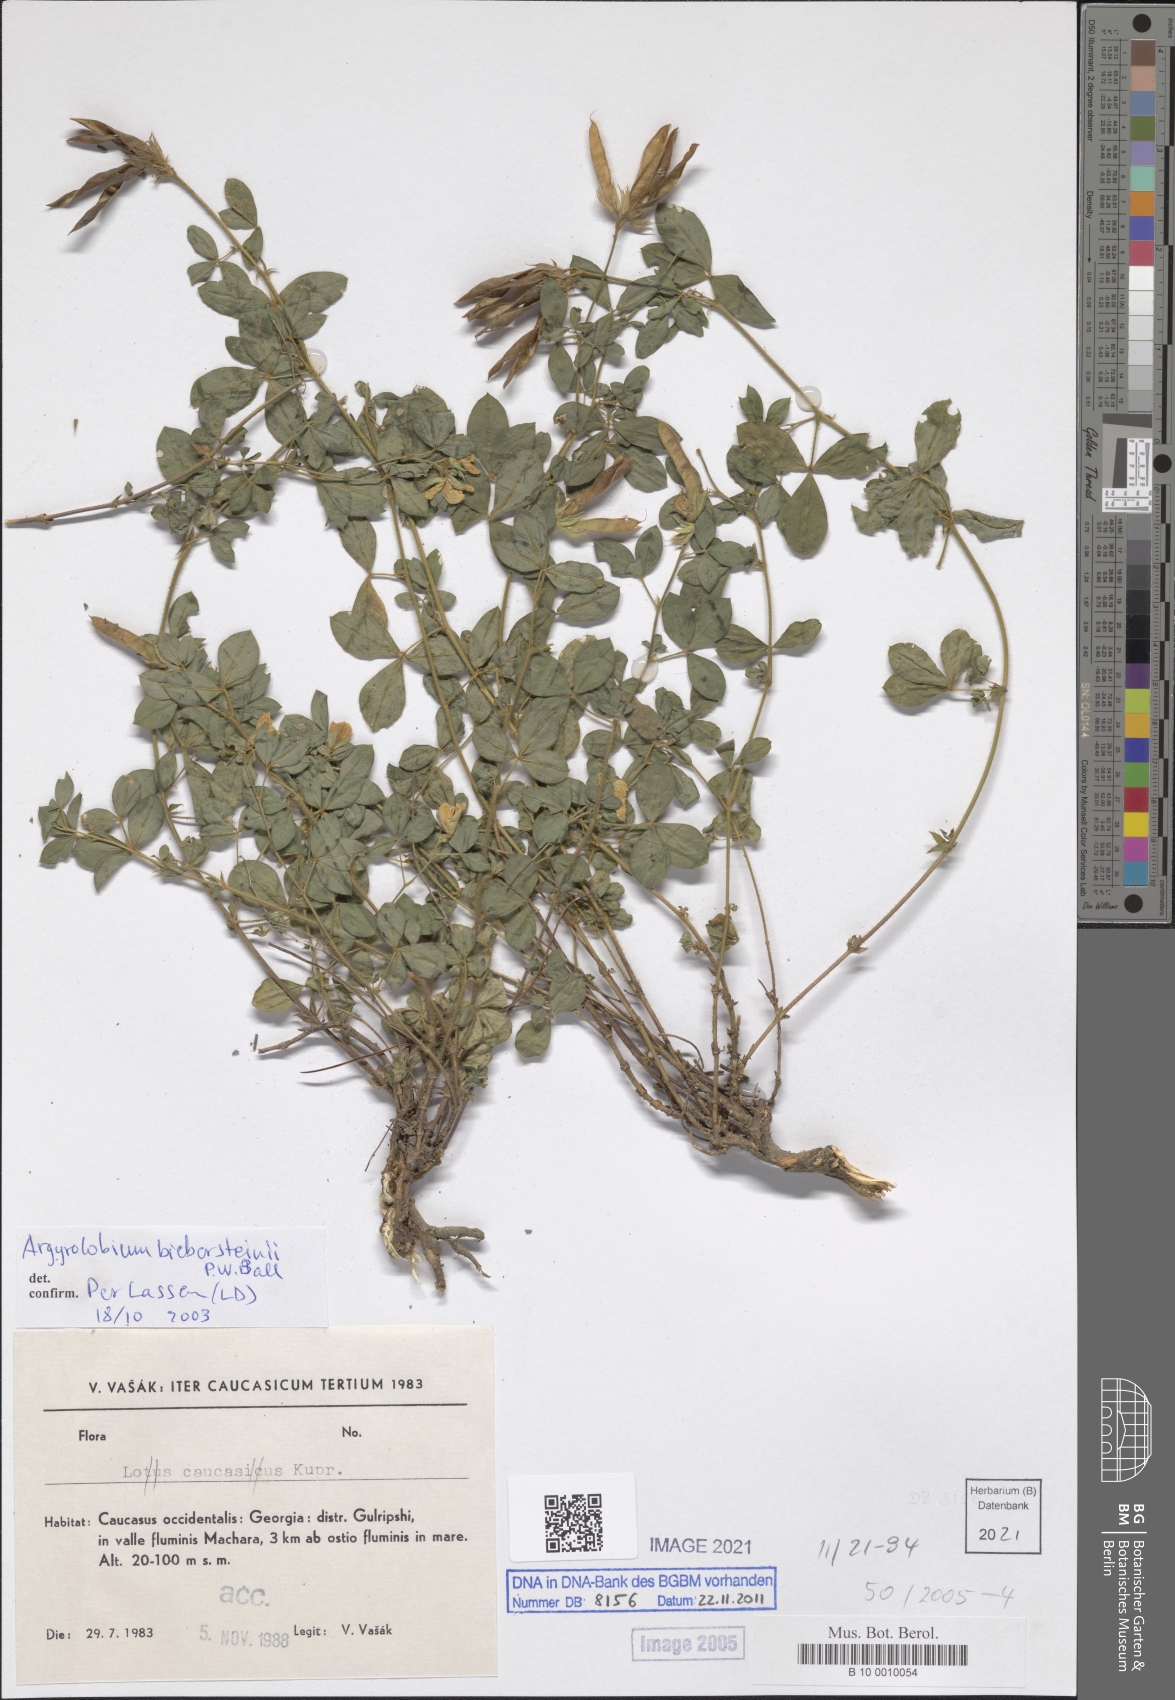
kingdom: Plantae
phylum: Tracheophyta
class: Magnoliopsida
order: Fabales
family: Fabaceae
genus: Argyrolobium
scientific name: Argyrolobium biebersteinii
